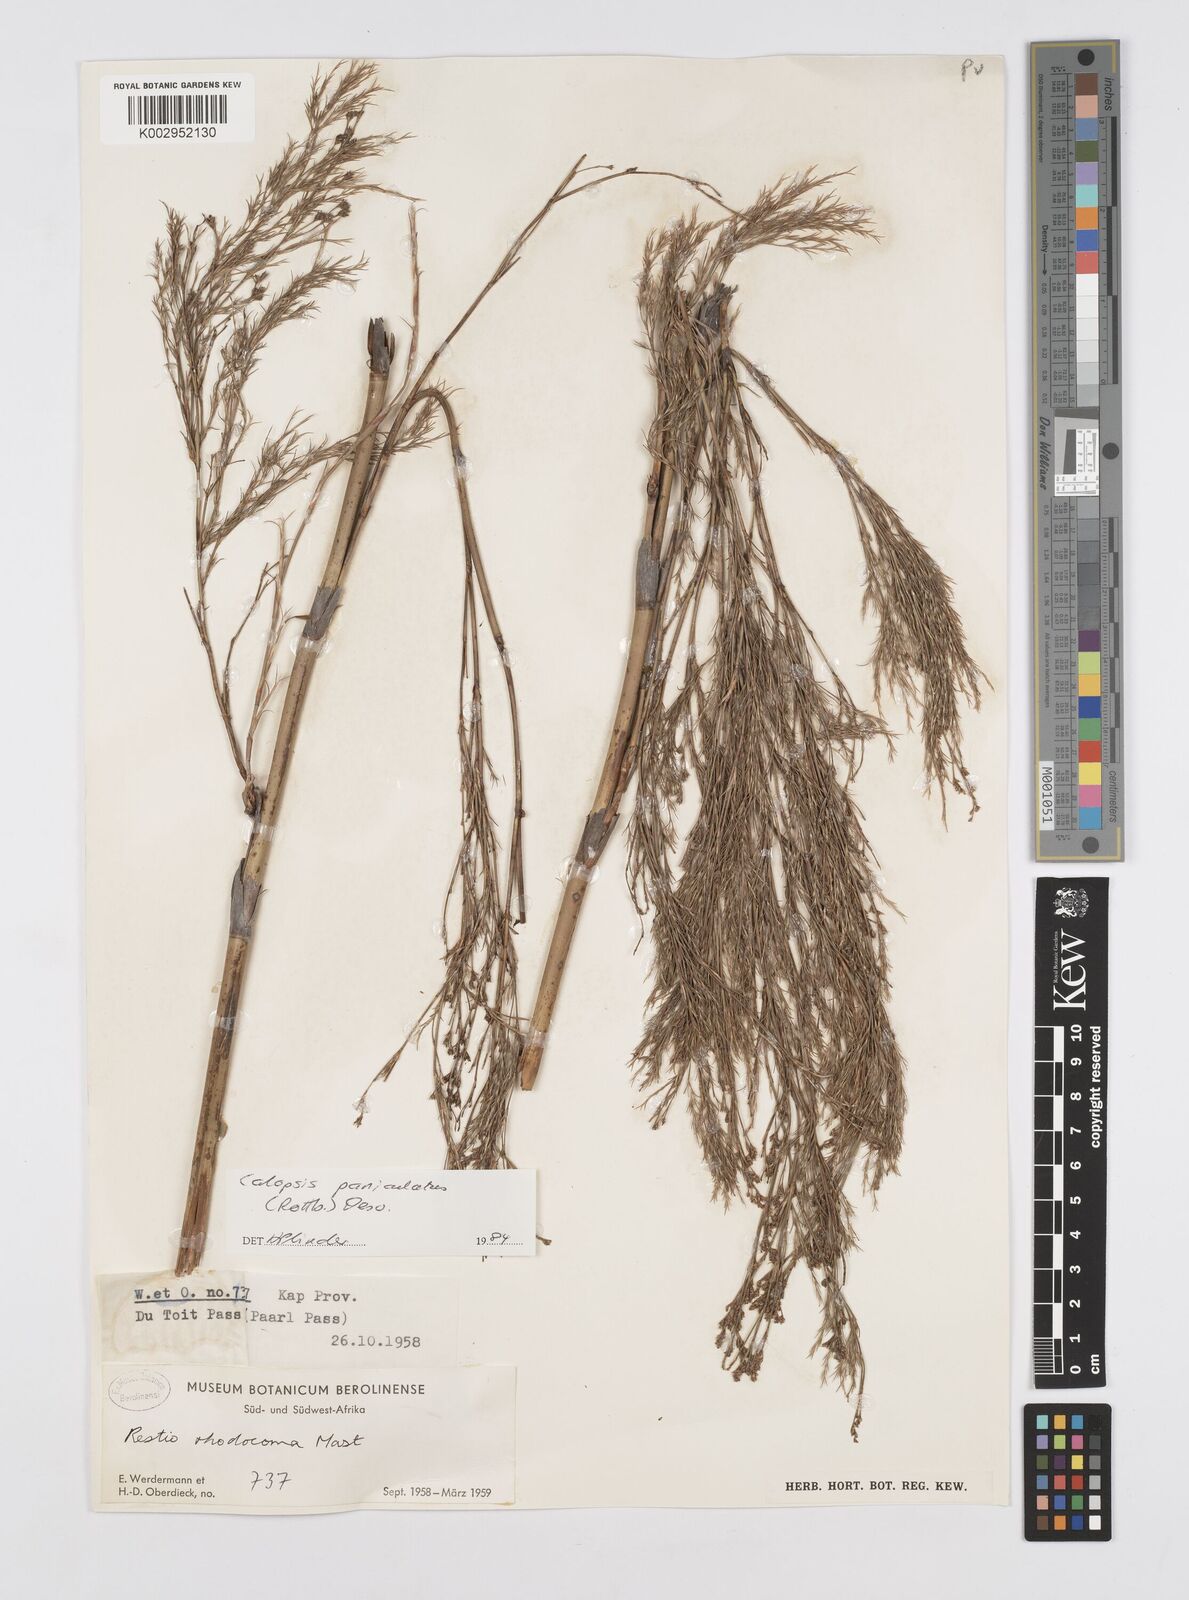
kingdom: Plantae
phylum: Tracheophyta
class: Liliopsida
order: Poales
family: Restionaceae
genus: Restio
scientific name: Restio paniculatus
